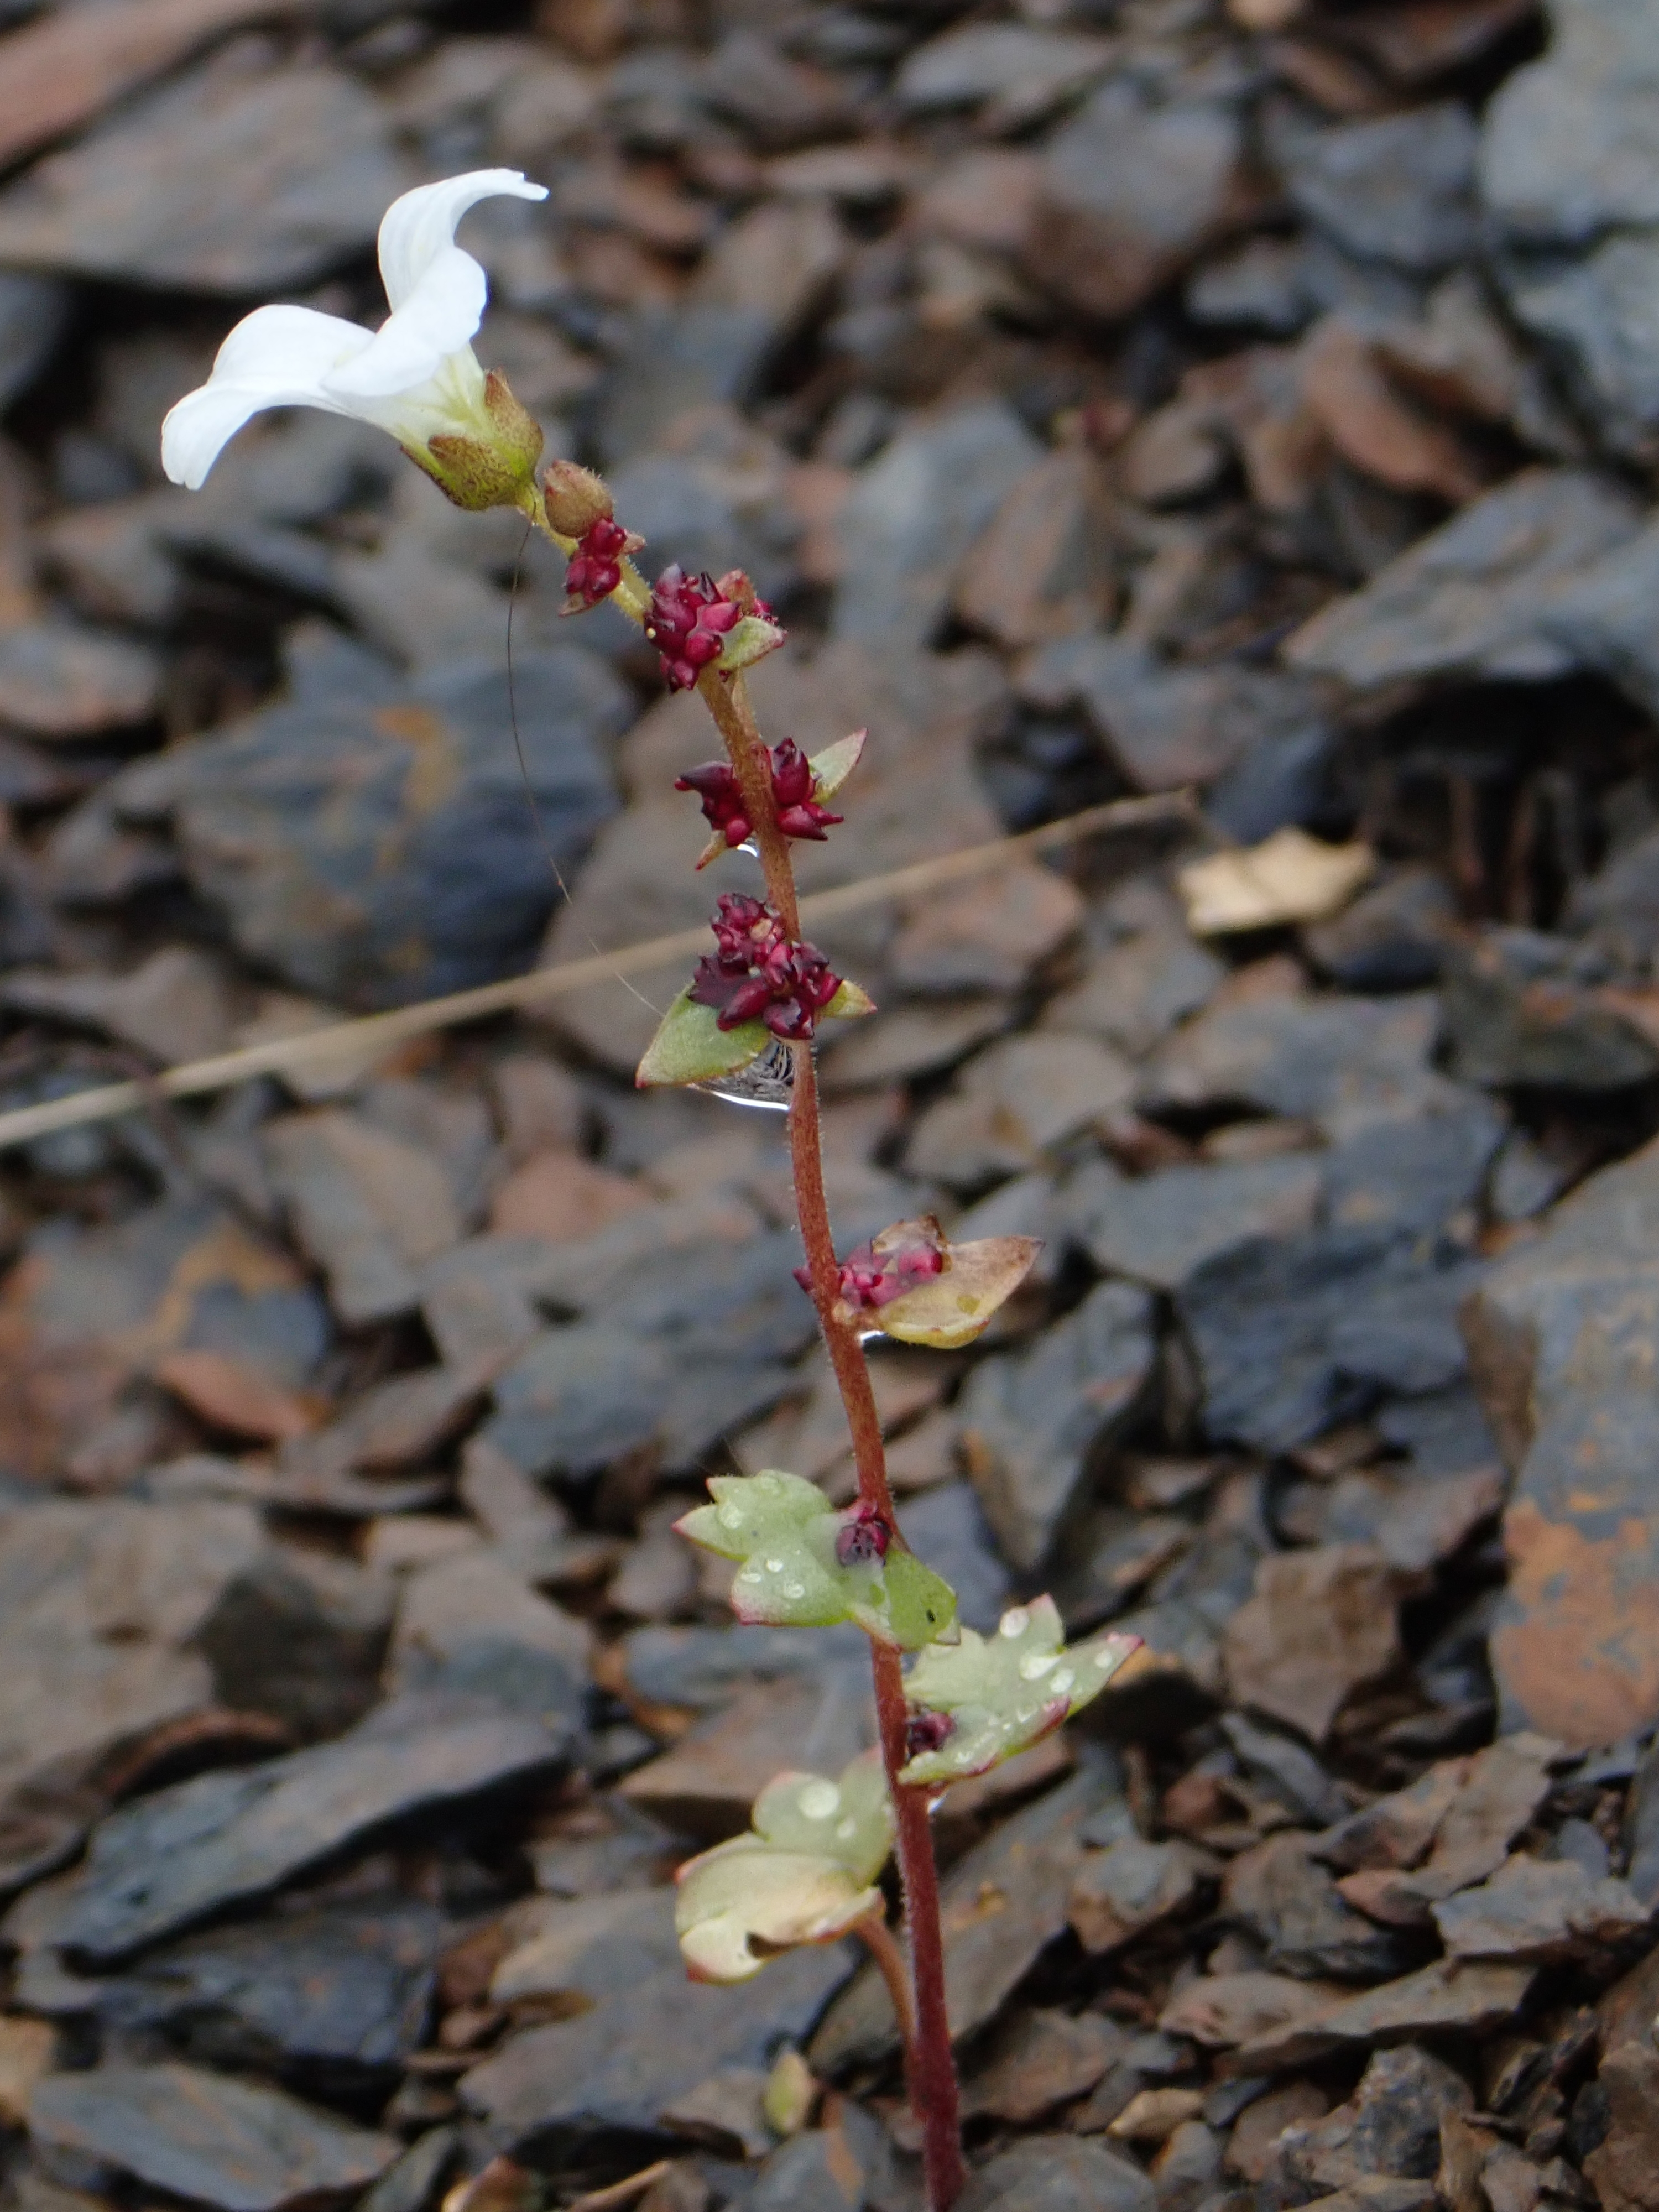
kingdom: Plantae
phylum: Tracheophyta
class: Magnoliopsida
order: Saxifragales
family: Saxifragaceae
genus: Saxifraga
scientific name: Saxifraga cernua
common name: Drooping saxifrage
